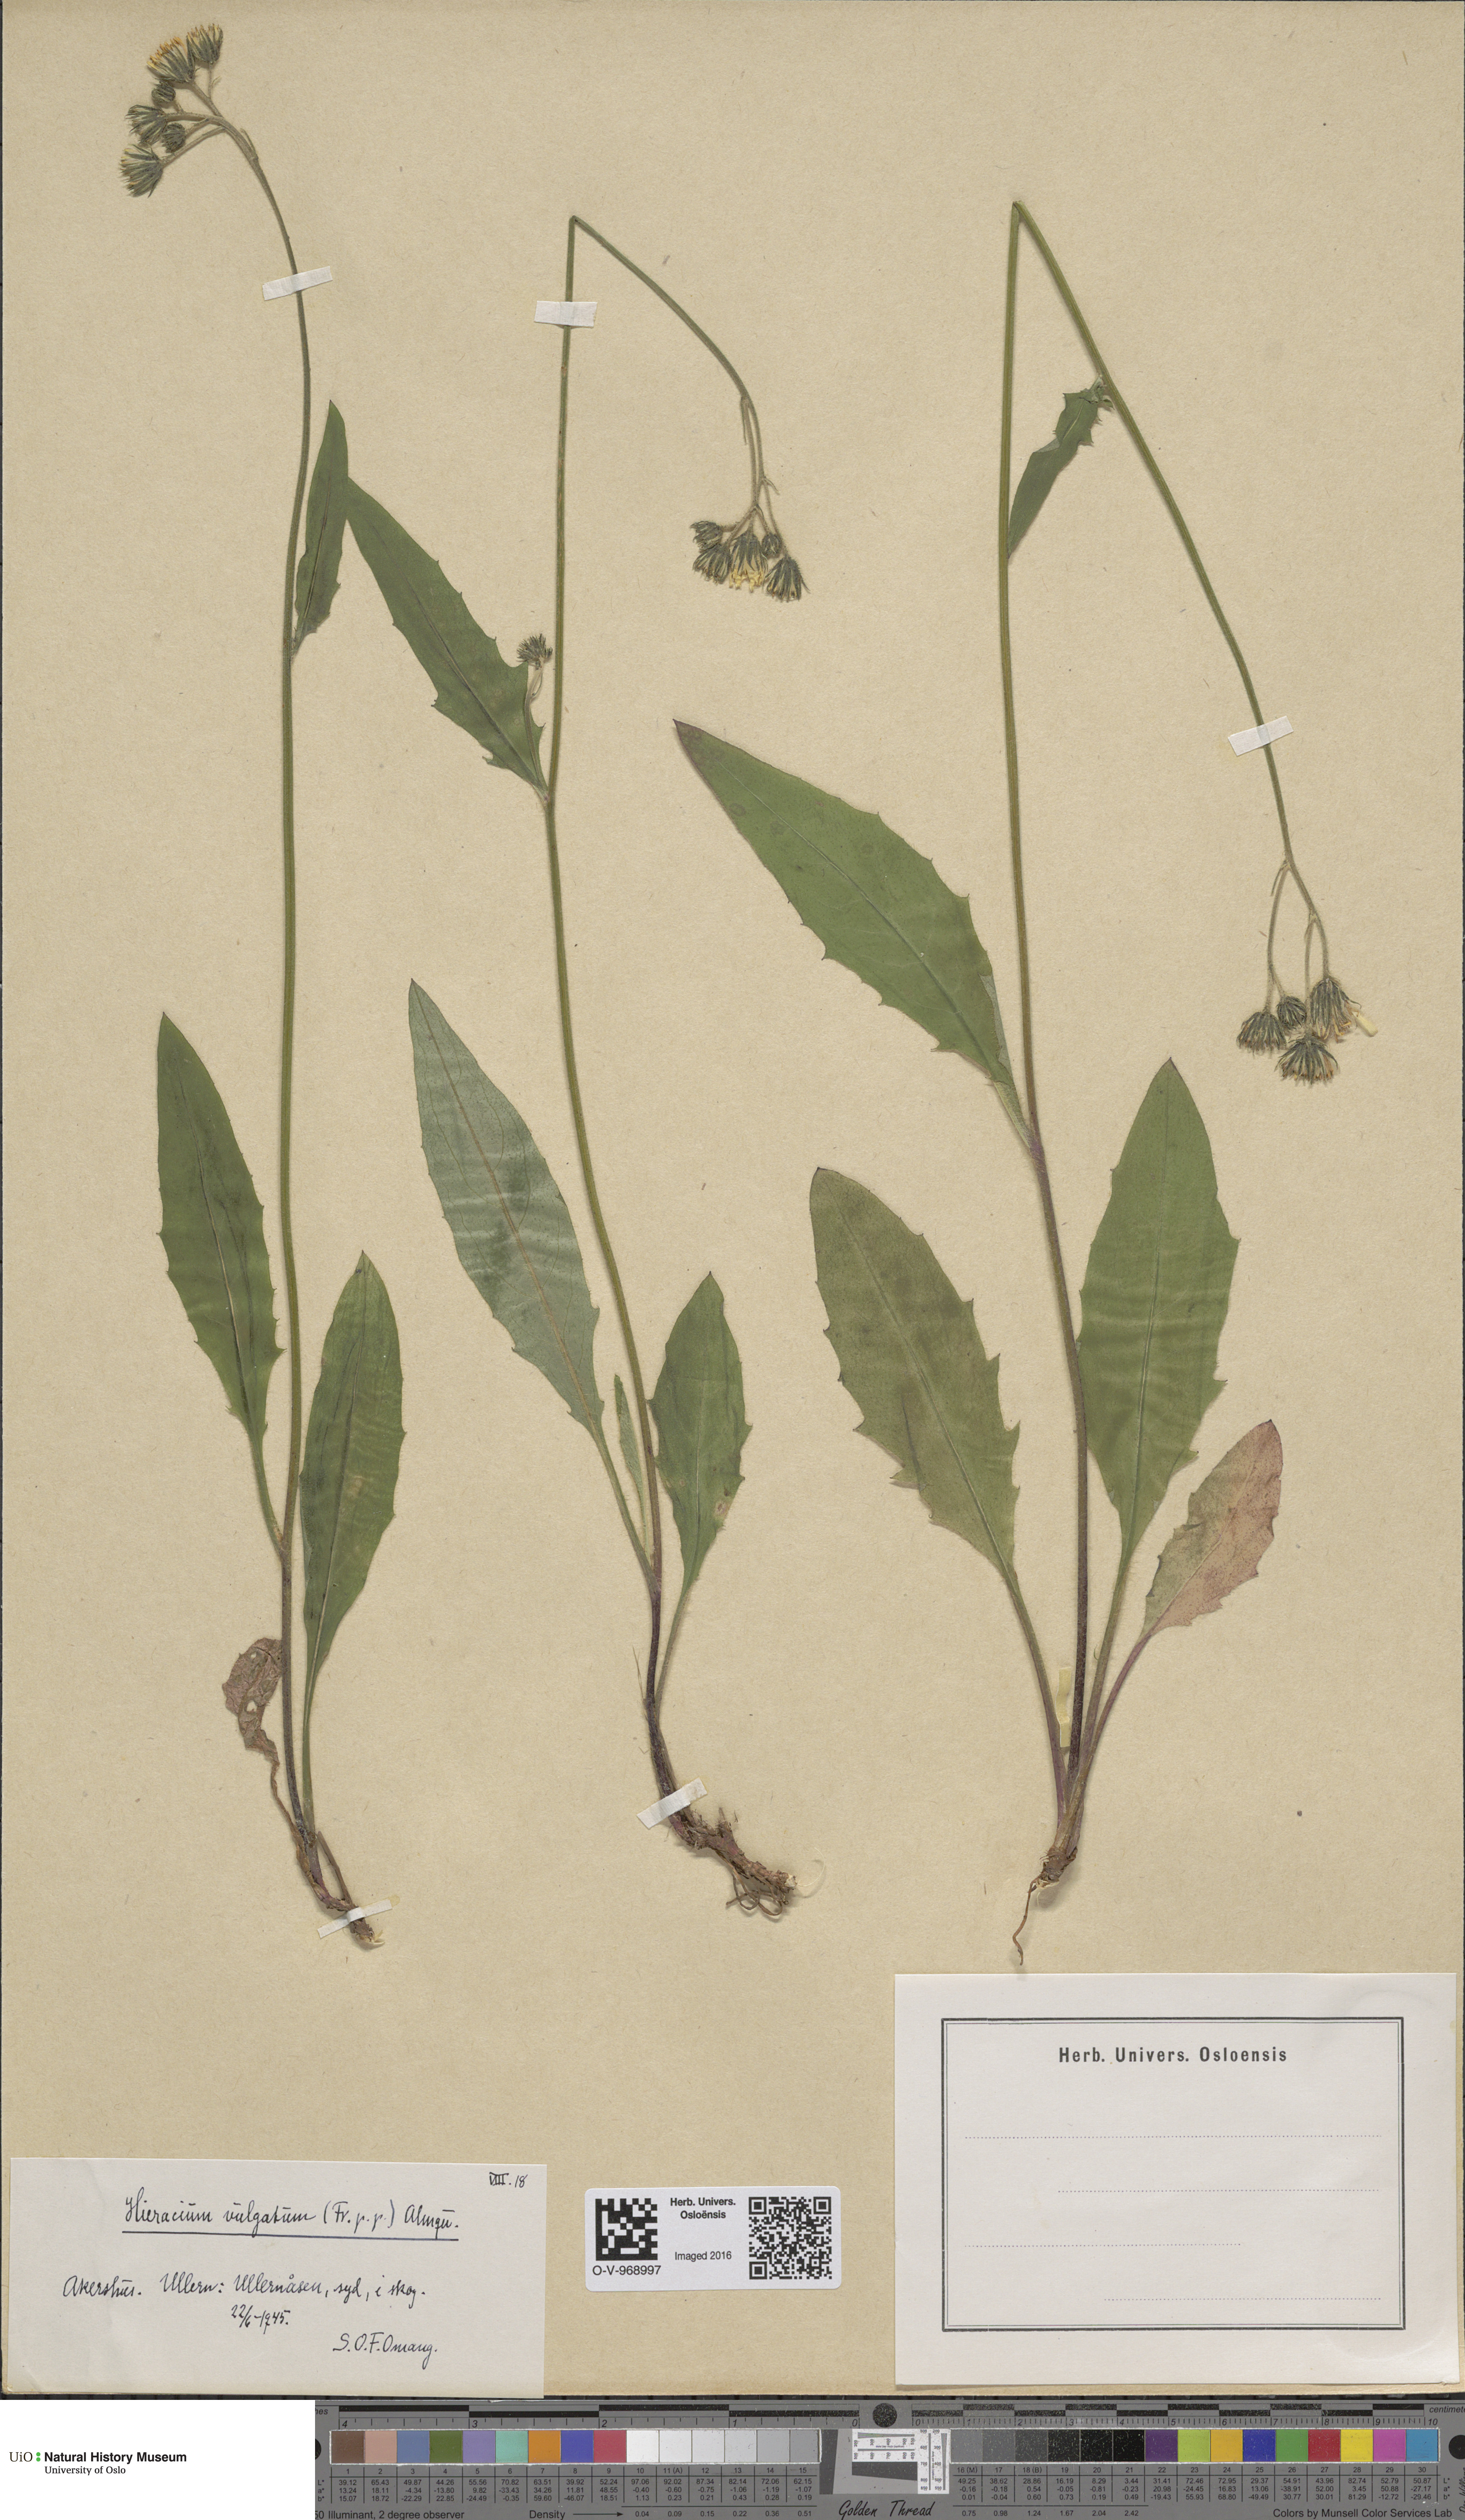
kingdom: Plantae
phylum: Tracheophyta
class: Magnoliopsida
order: Asterales
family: Asteraceae
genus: Hieracium
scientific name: Hieracium vulgatum
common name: Common hawkweed
